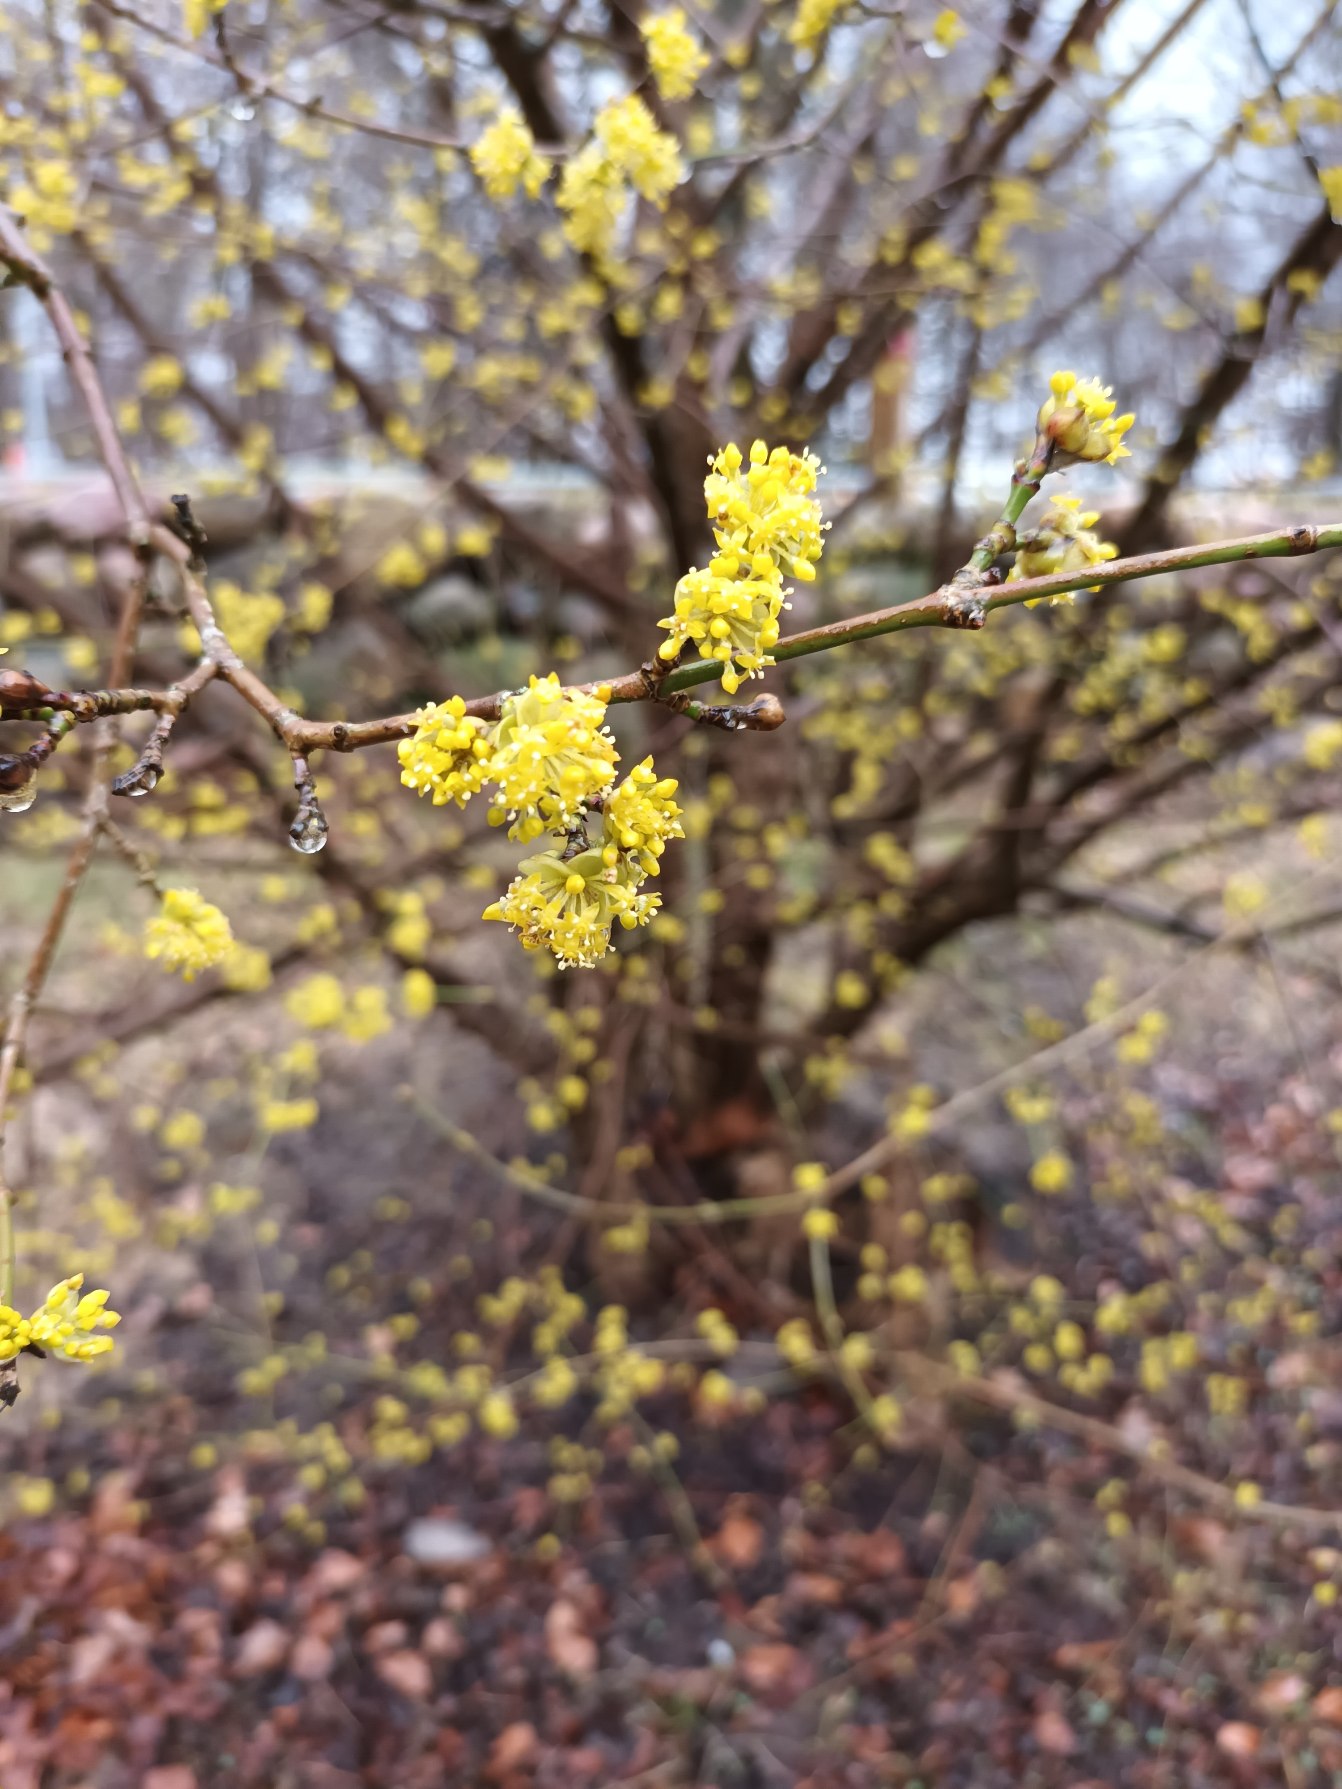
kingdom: Plantae
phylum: Tracheophyta
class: Magnoliopsida
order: Cornales
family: Cornaceae
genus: Cornus
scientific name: Cornus mas
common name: Kirsebær-kornel
